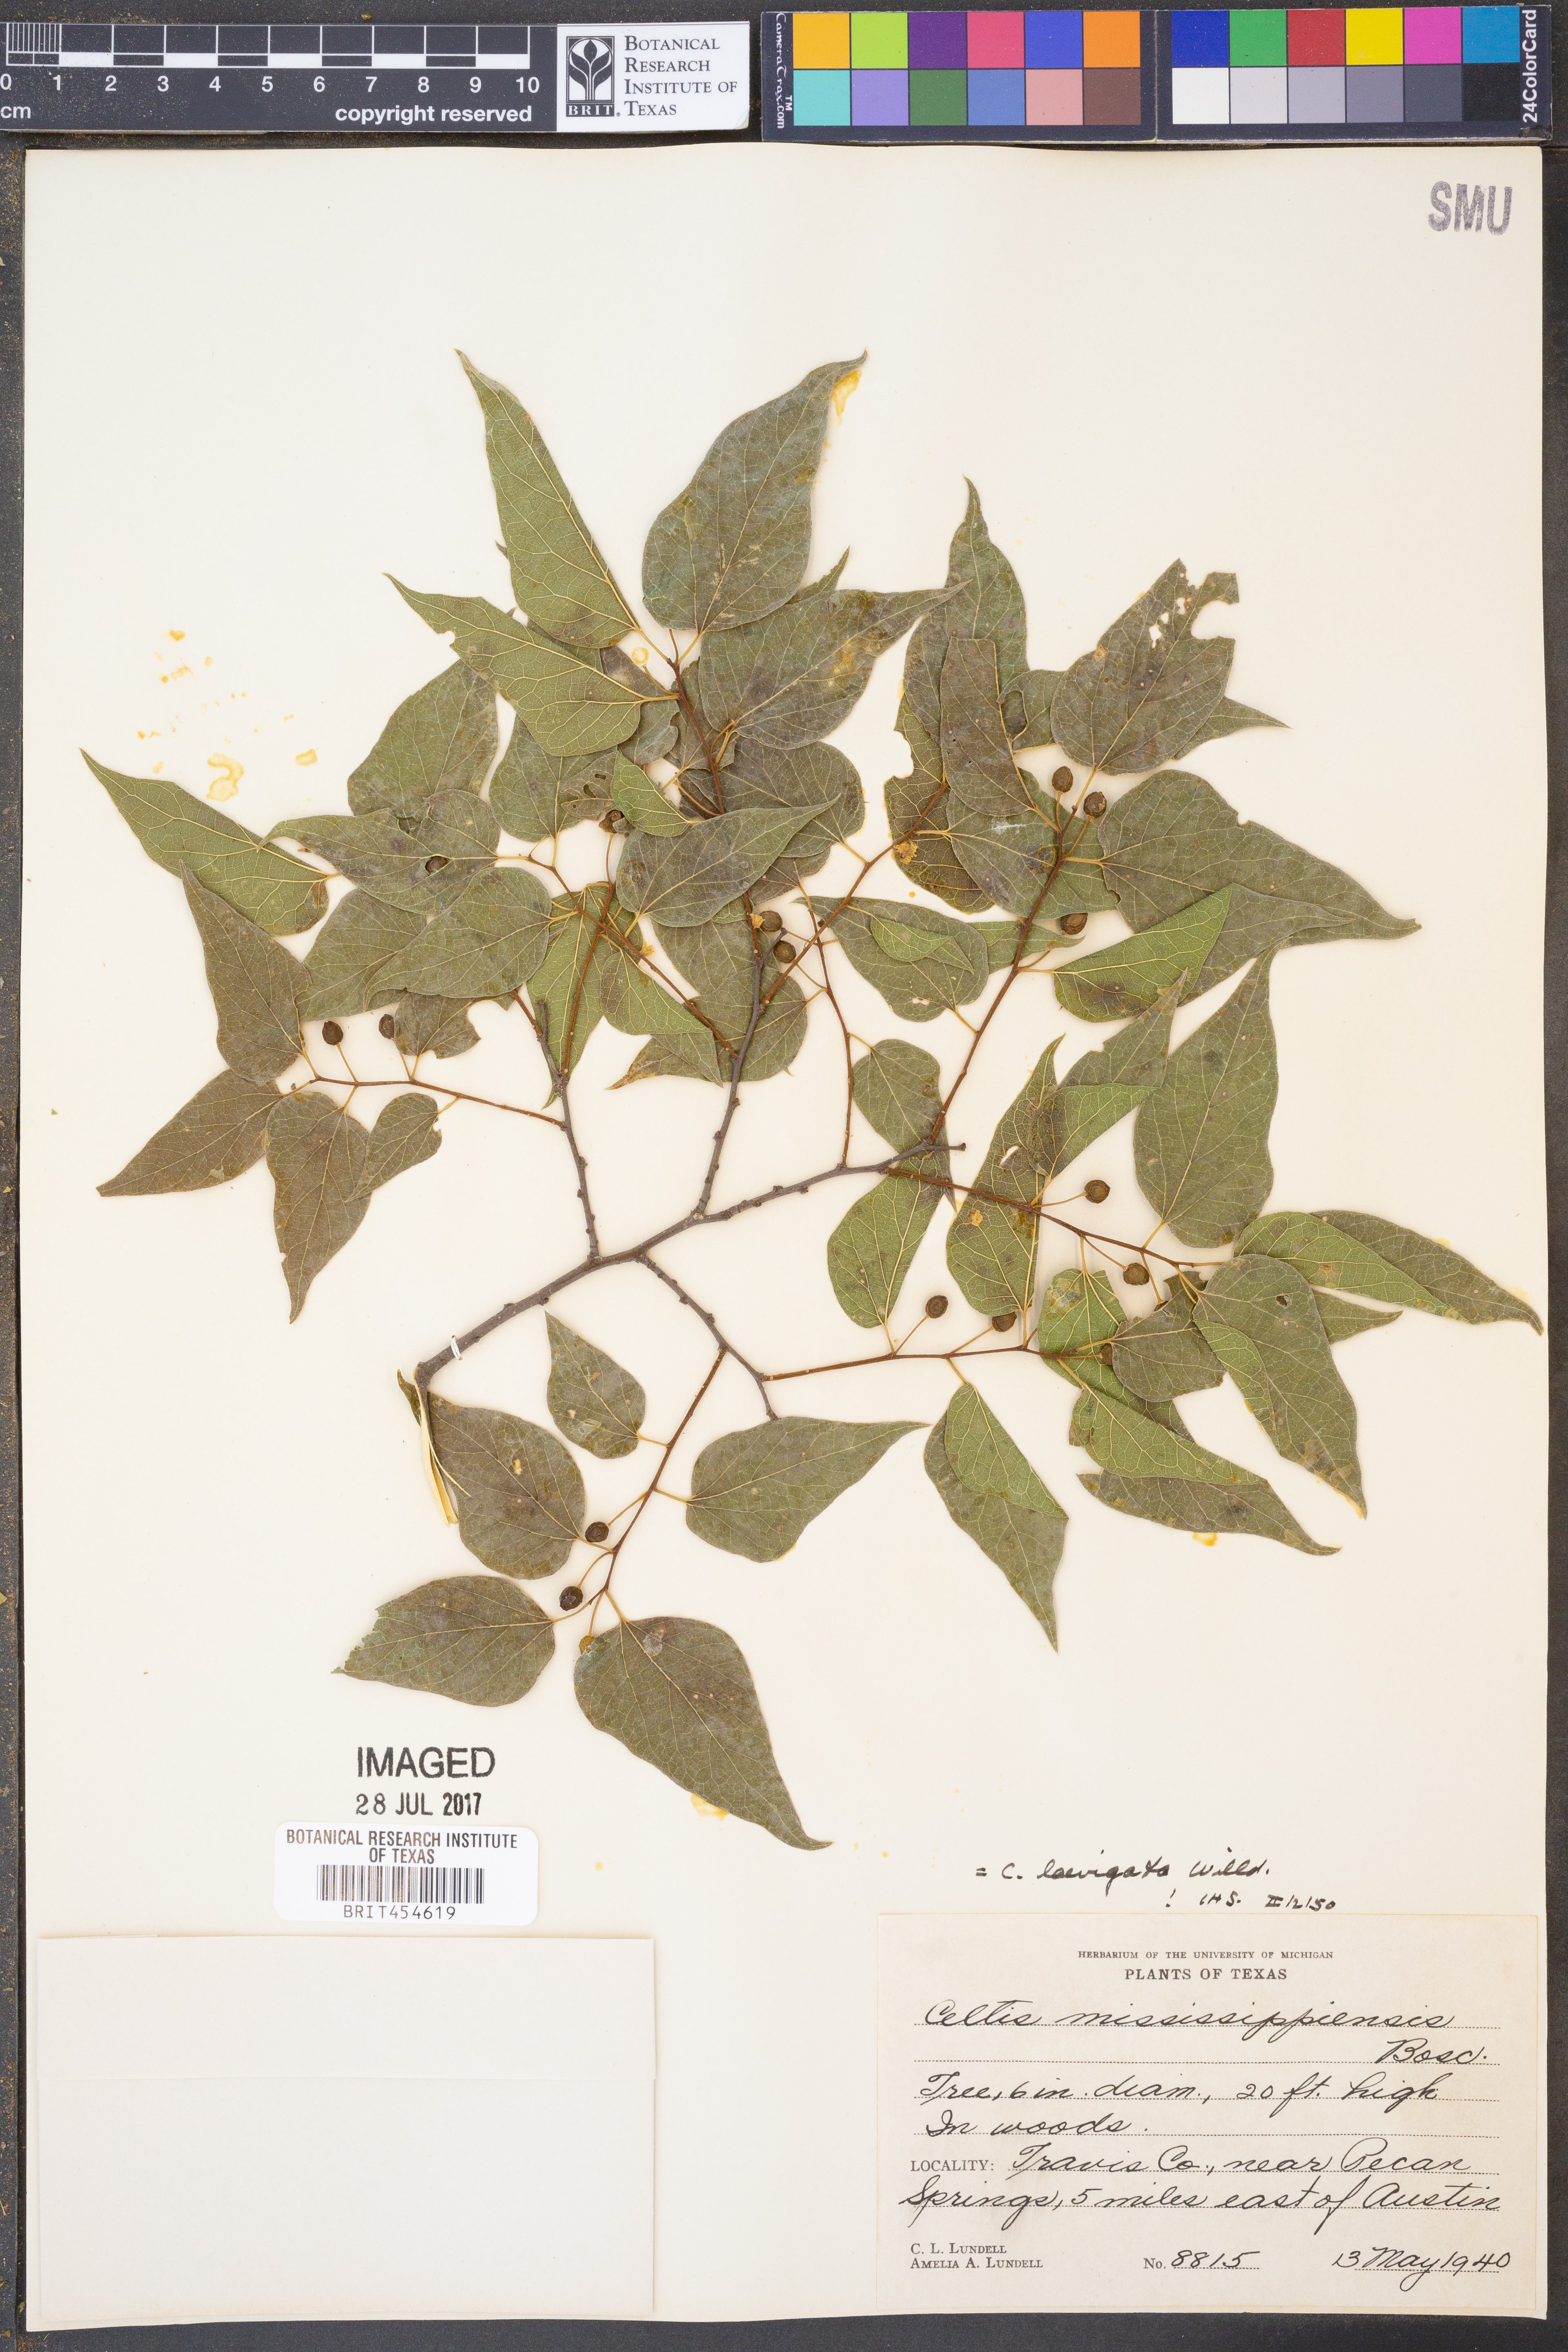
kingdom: Plantae
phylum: Tracheophyta
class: Magnoliopsida
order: Rosales
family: Cannabaceae
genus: Celtis
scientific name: Celtis laevigata
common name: Sugarberry
